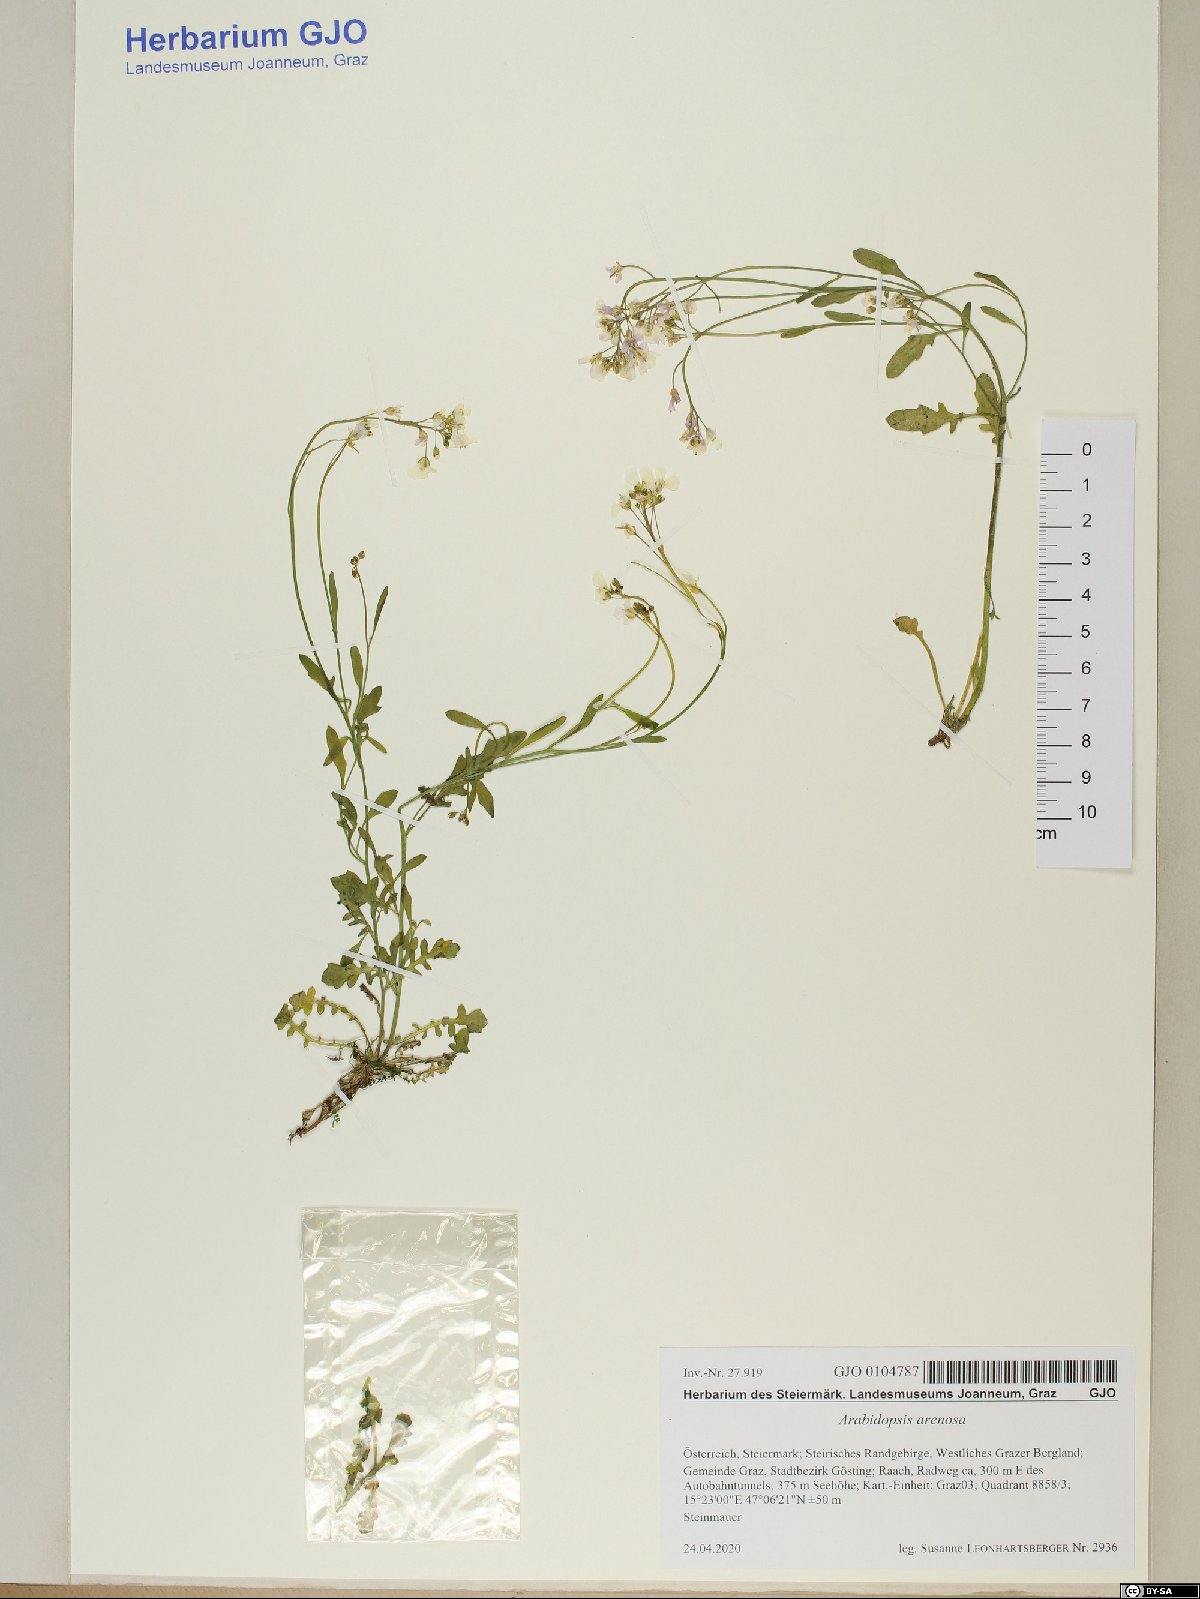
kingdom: Plantae
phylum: Tracheophyta
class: Magnoliopsida
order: Brassicales
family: Brassicaceae
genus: Arabidopsis
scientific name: Arabidopsis arenosa
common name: Sand rock-cress
